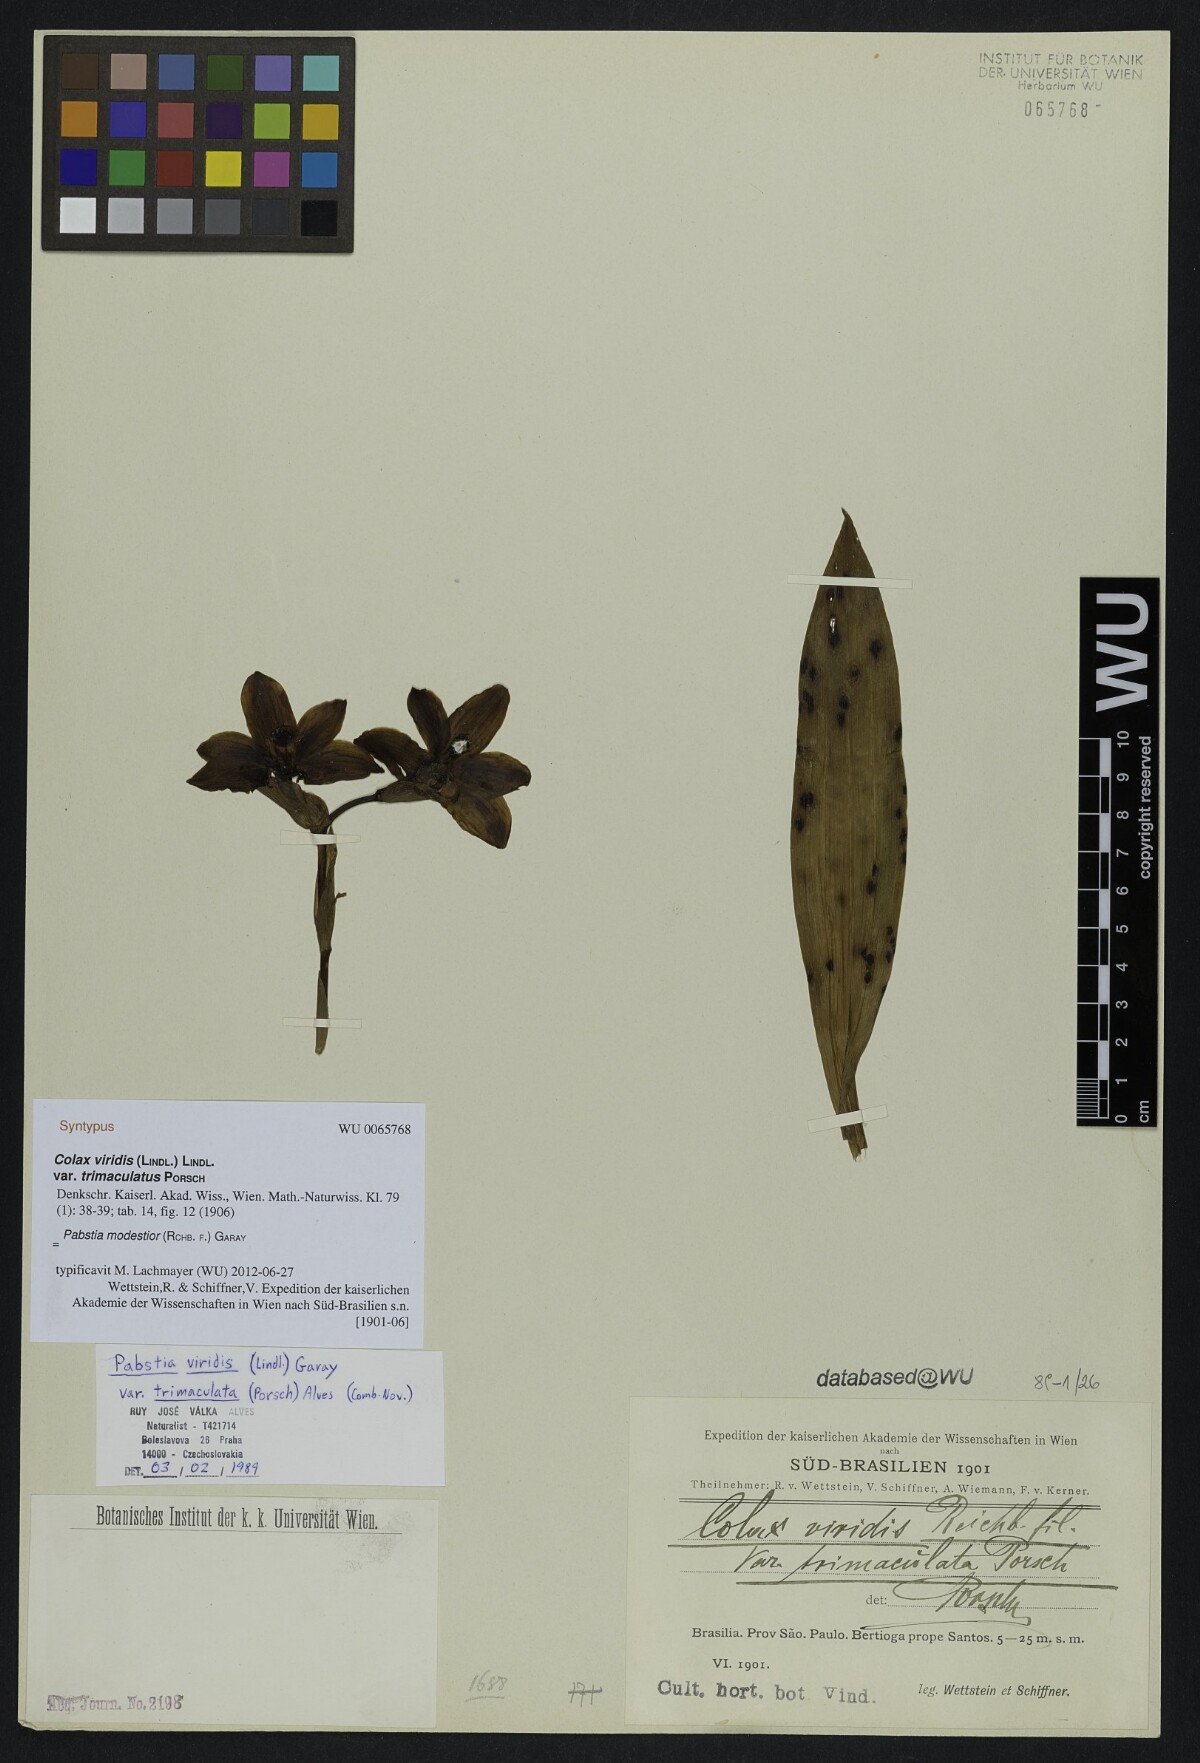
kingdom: Plantae
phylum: Tracheophyta
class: Liliopsida
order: Asparagales
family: Orchidaceae
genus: Pabstia
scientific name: Pabstia modestior
